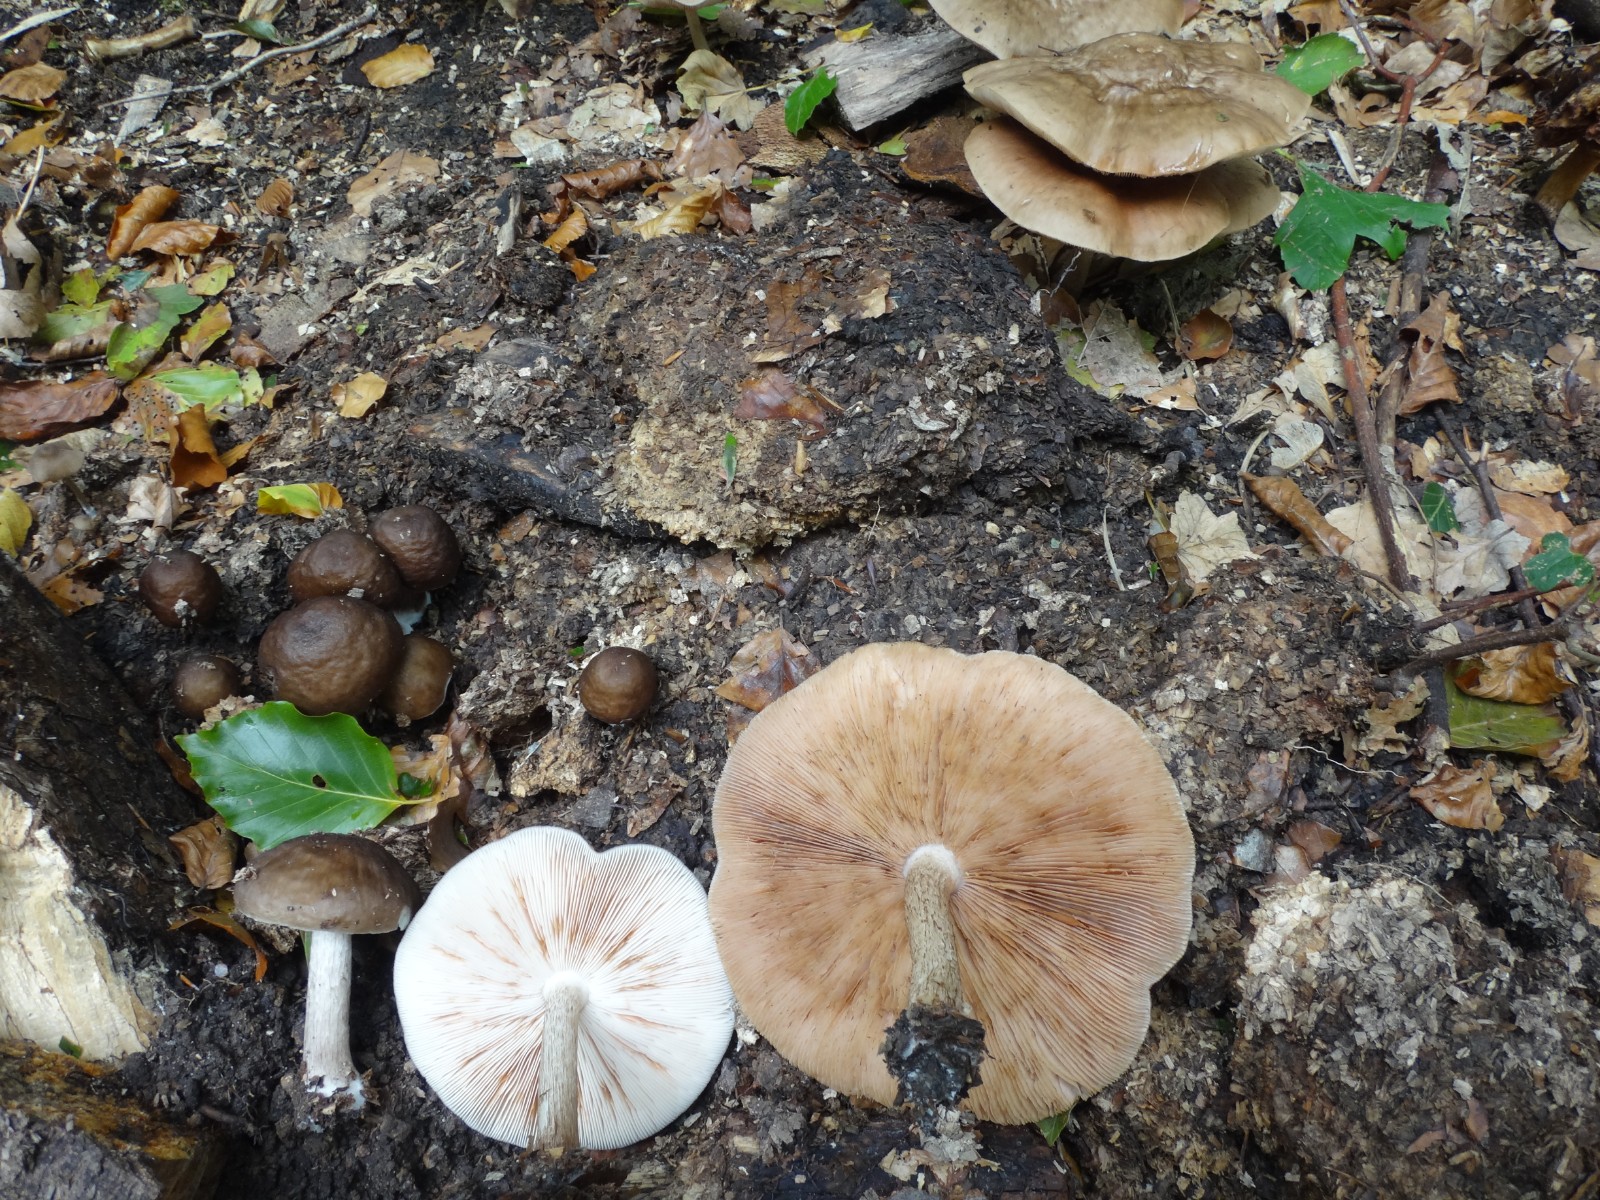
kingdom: Fungi
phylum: Basidiomycota
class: Agaricomycetes
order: Agaricales
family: Pluteaceae
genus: Pluteus
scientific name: Pluteus cervinus
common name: sodfarvet skærmhat
